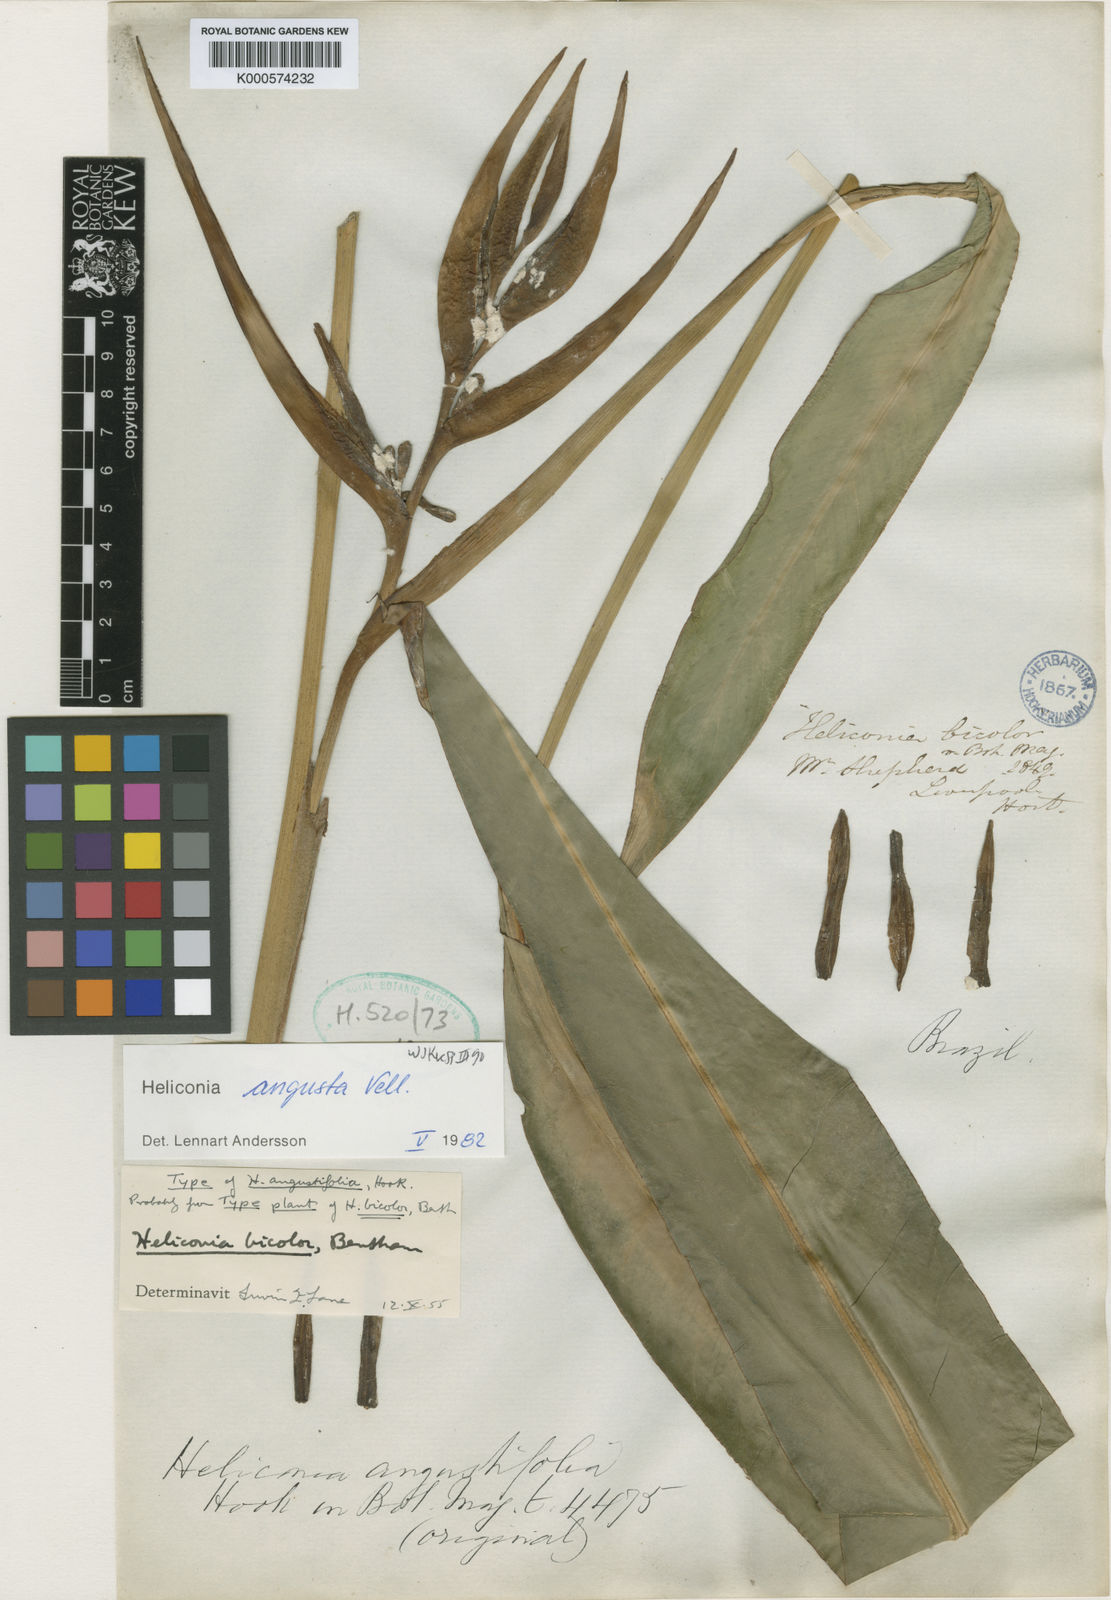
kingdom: Plantae
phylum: Tracheophyta
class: Liliopsida
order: Zingiberales
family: Heliconiaceae
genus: Heliconia
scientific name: Heliconia angusta
